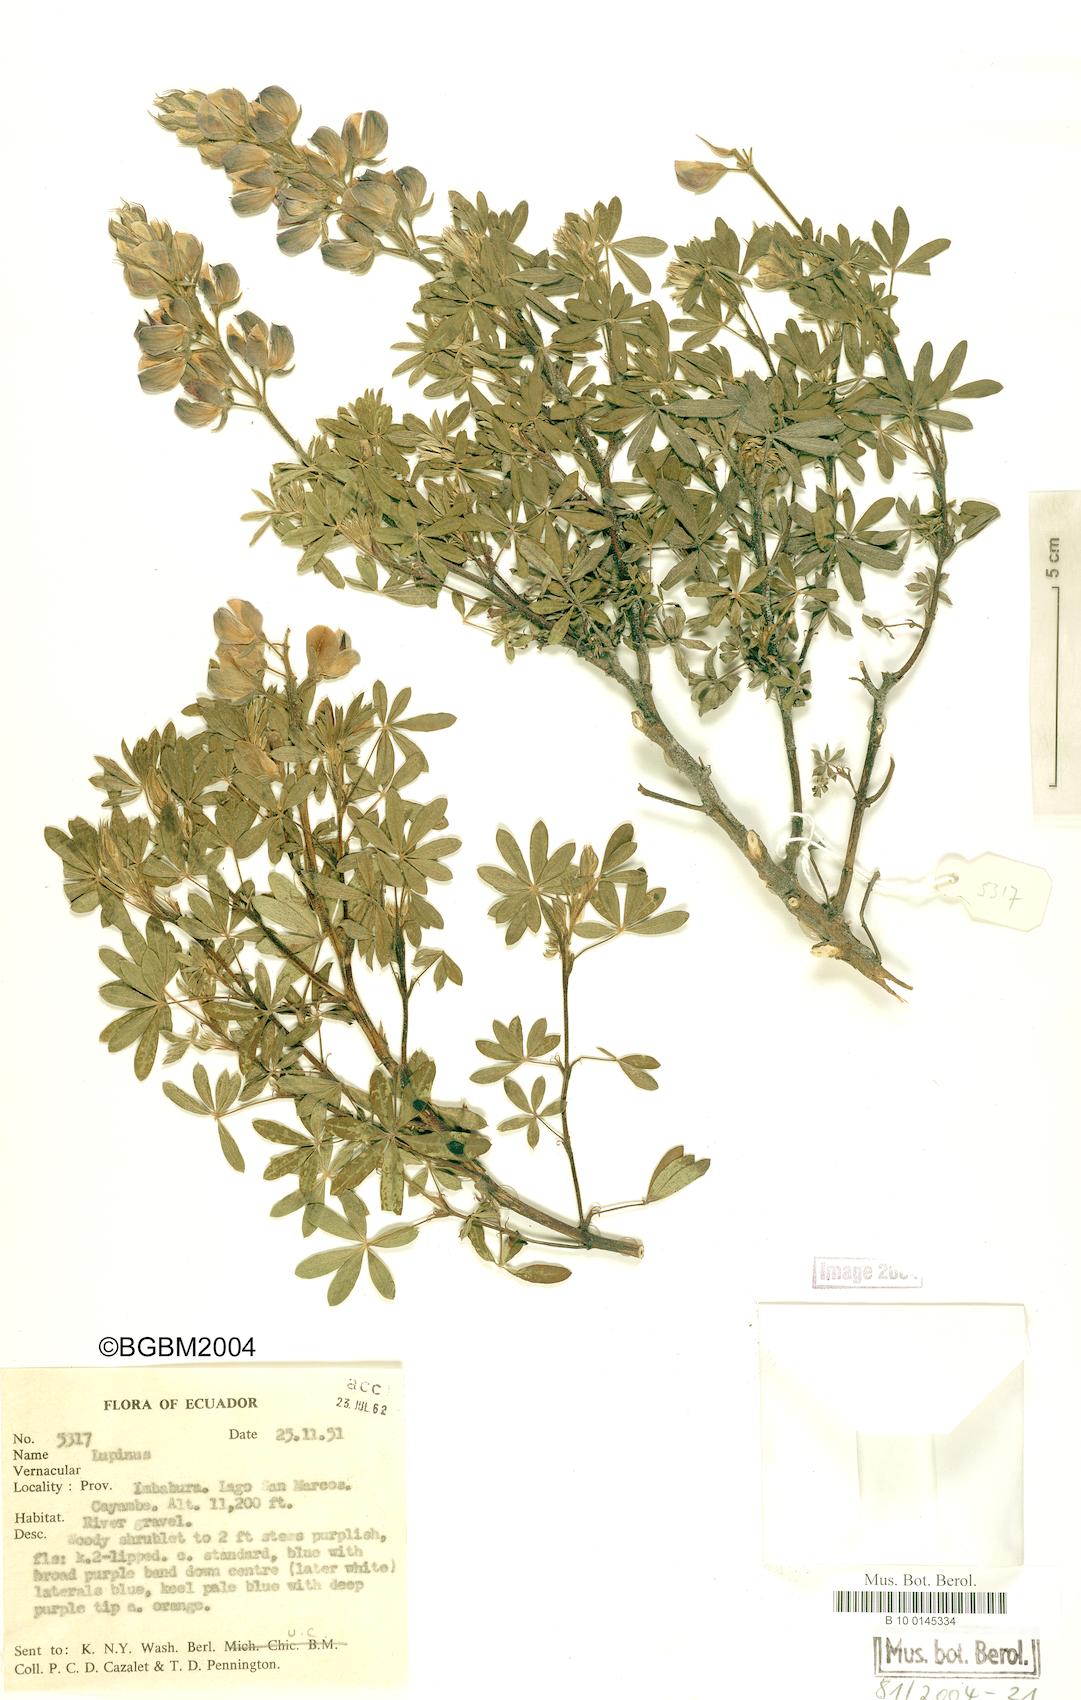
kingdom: Plantae
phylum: Tracheophyta
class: Magnoliopsida
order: Fabales
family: Fabaceae
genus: Lupinus
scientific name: Lupinus
